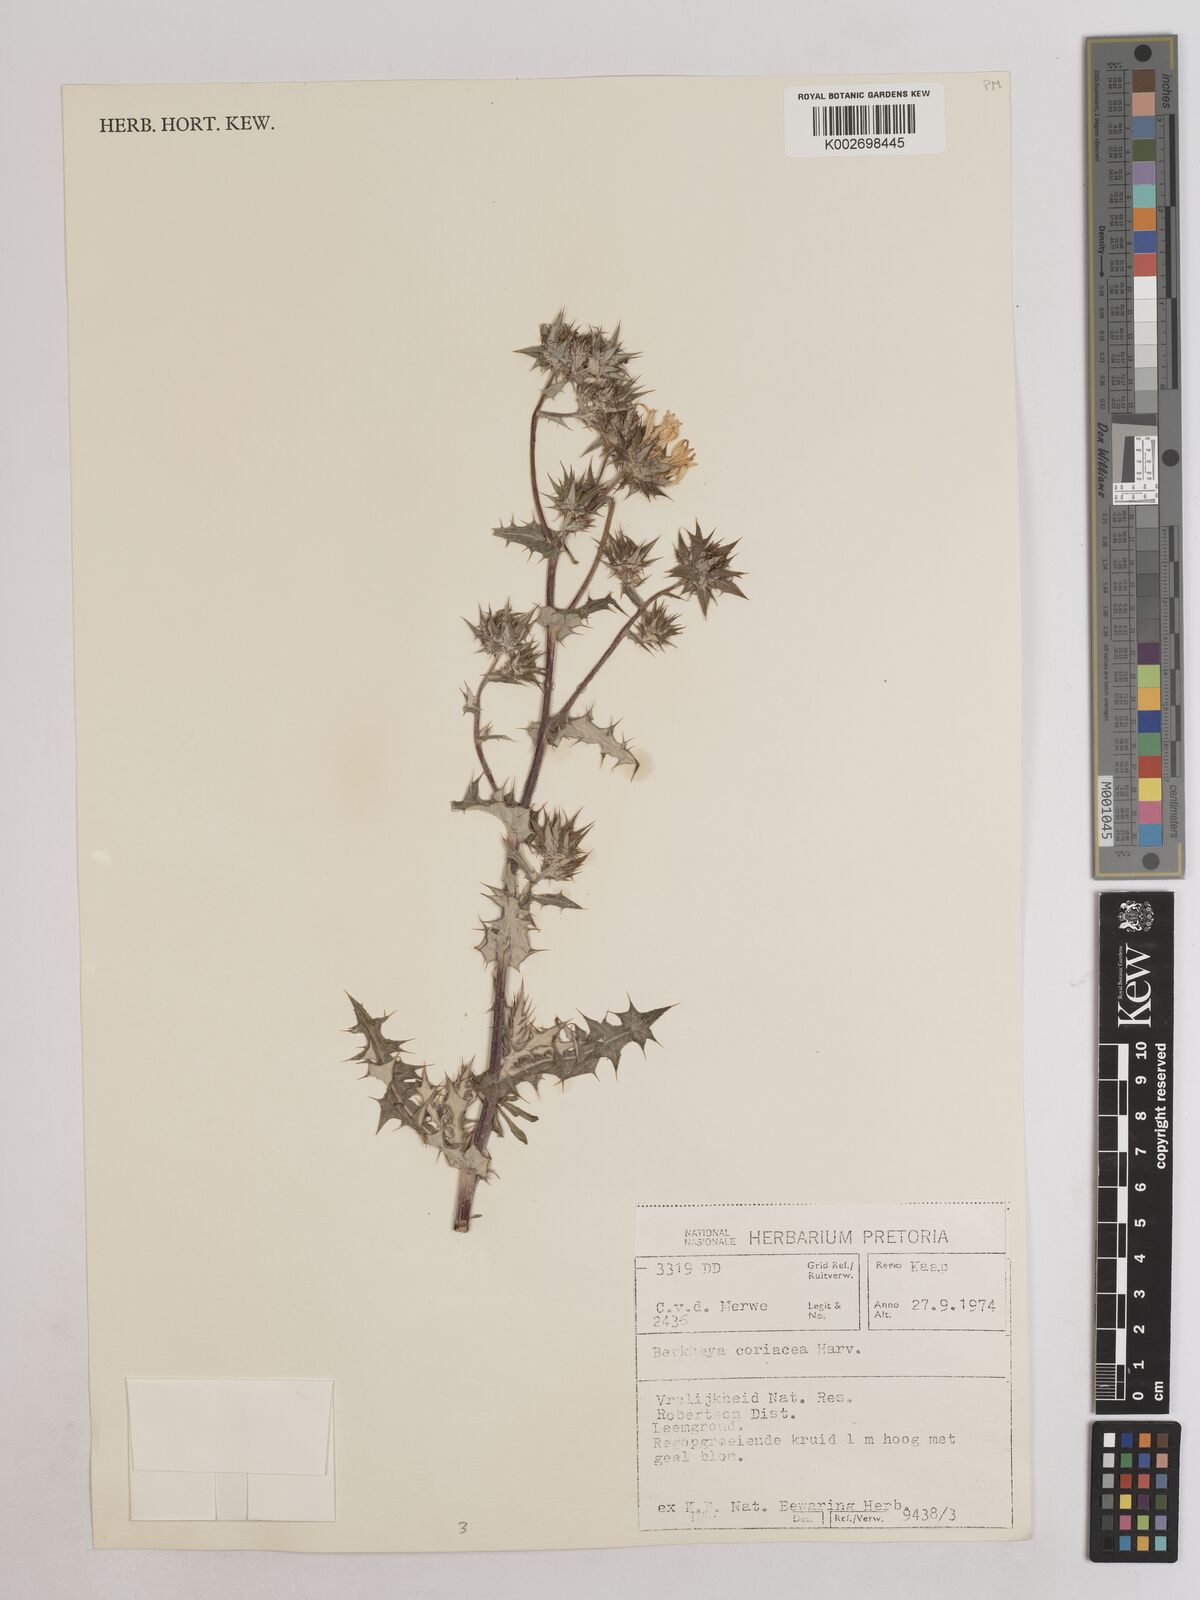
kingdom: Plantae
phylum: Tracheophyta
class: Magnoliopsida
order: Asterales
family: Asteraceae
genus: Berkheya
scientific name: Berkheya coriacea
